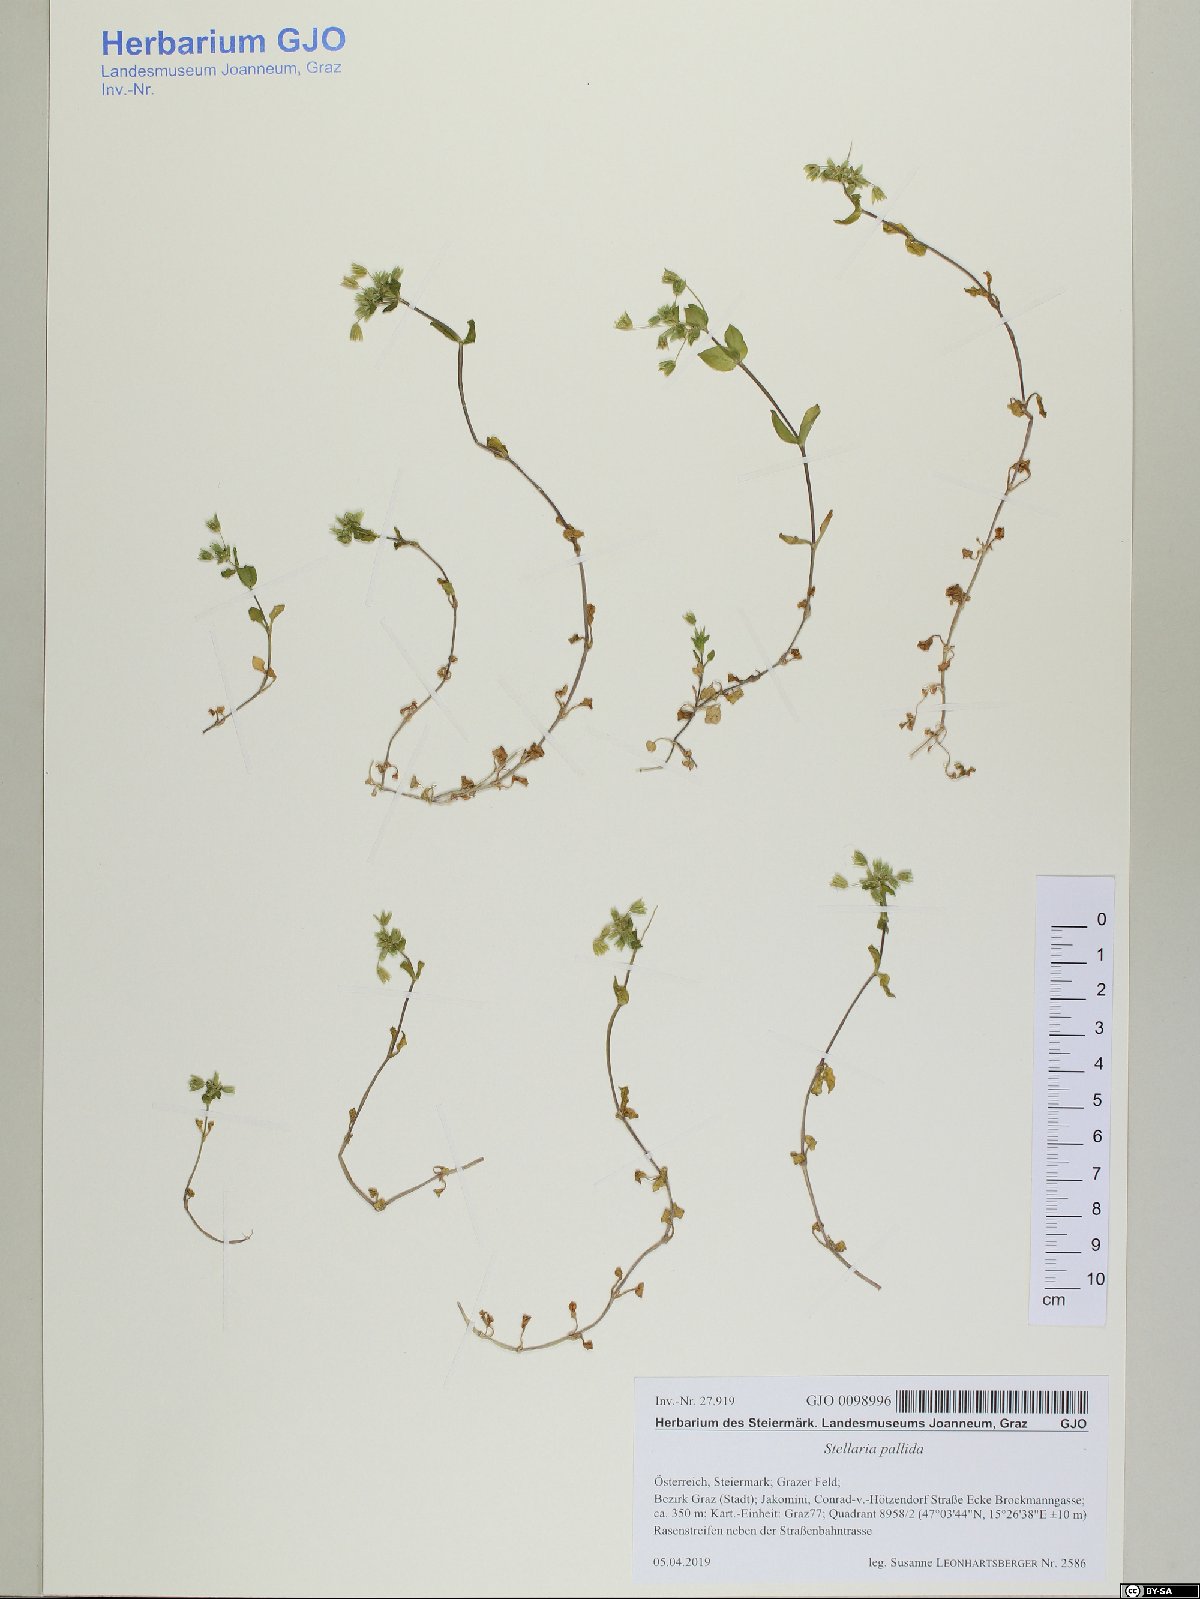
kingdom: Plantae
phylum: Tracheophyta
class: Magnoliopsida
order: Caryophyllales
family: Caryophyllaceae
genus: Stellaria
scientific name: Stellaria apetala
